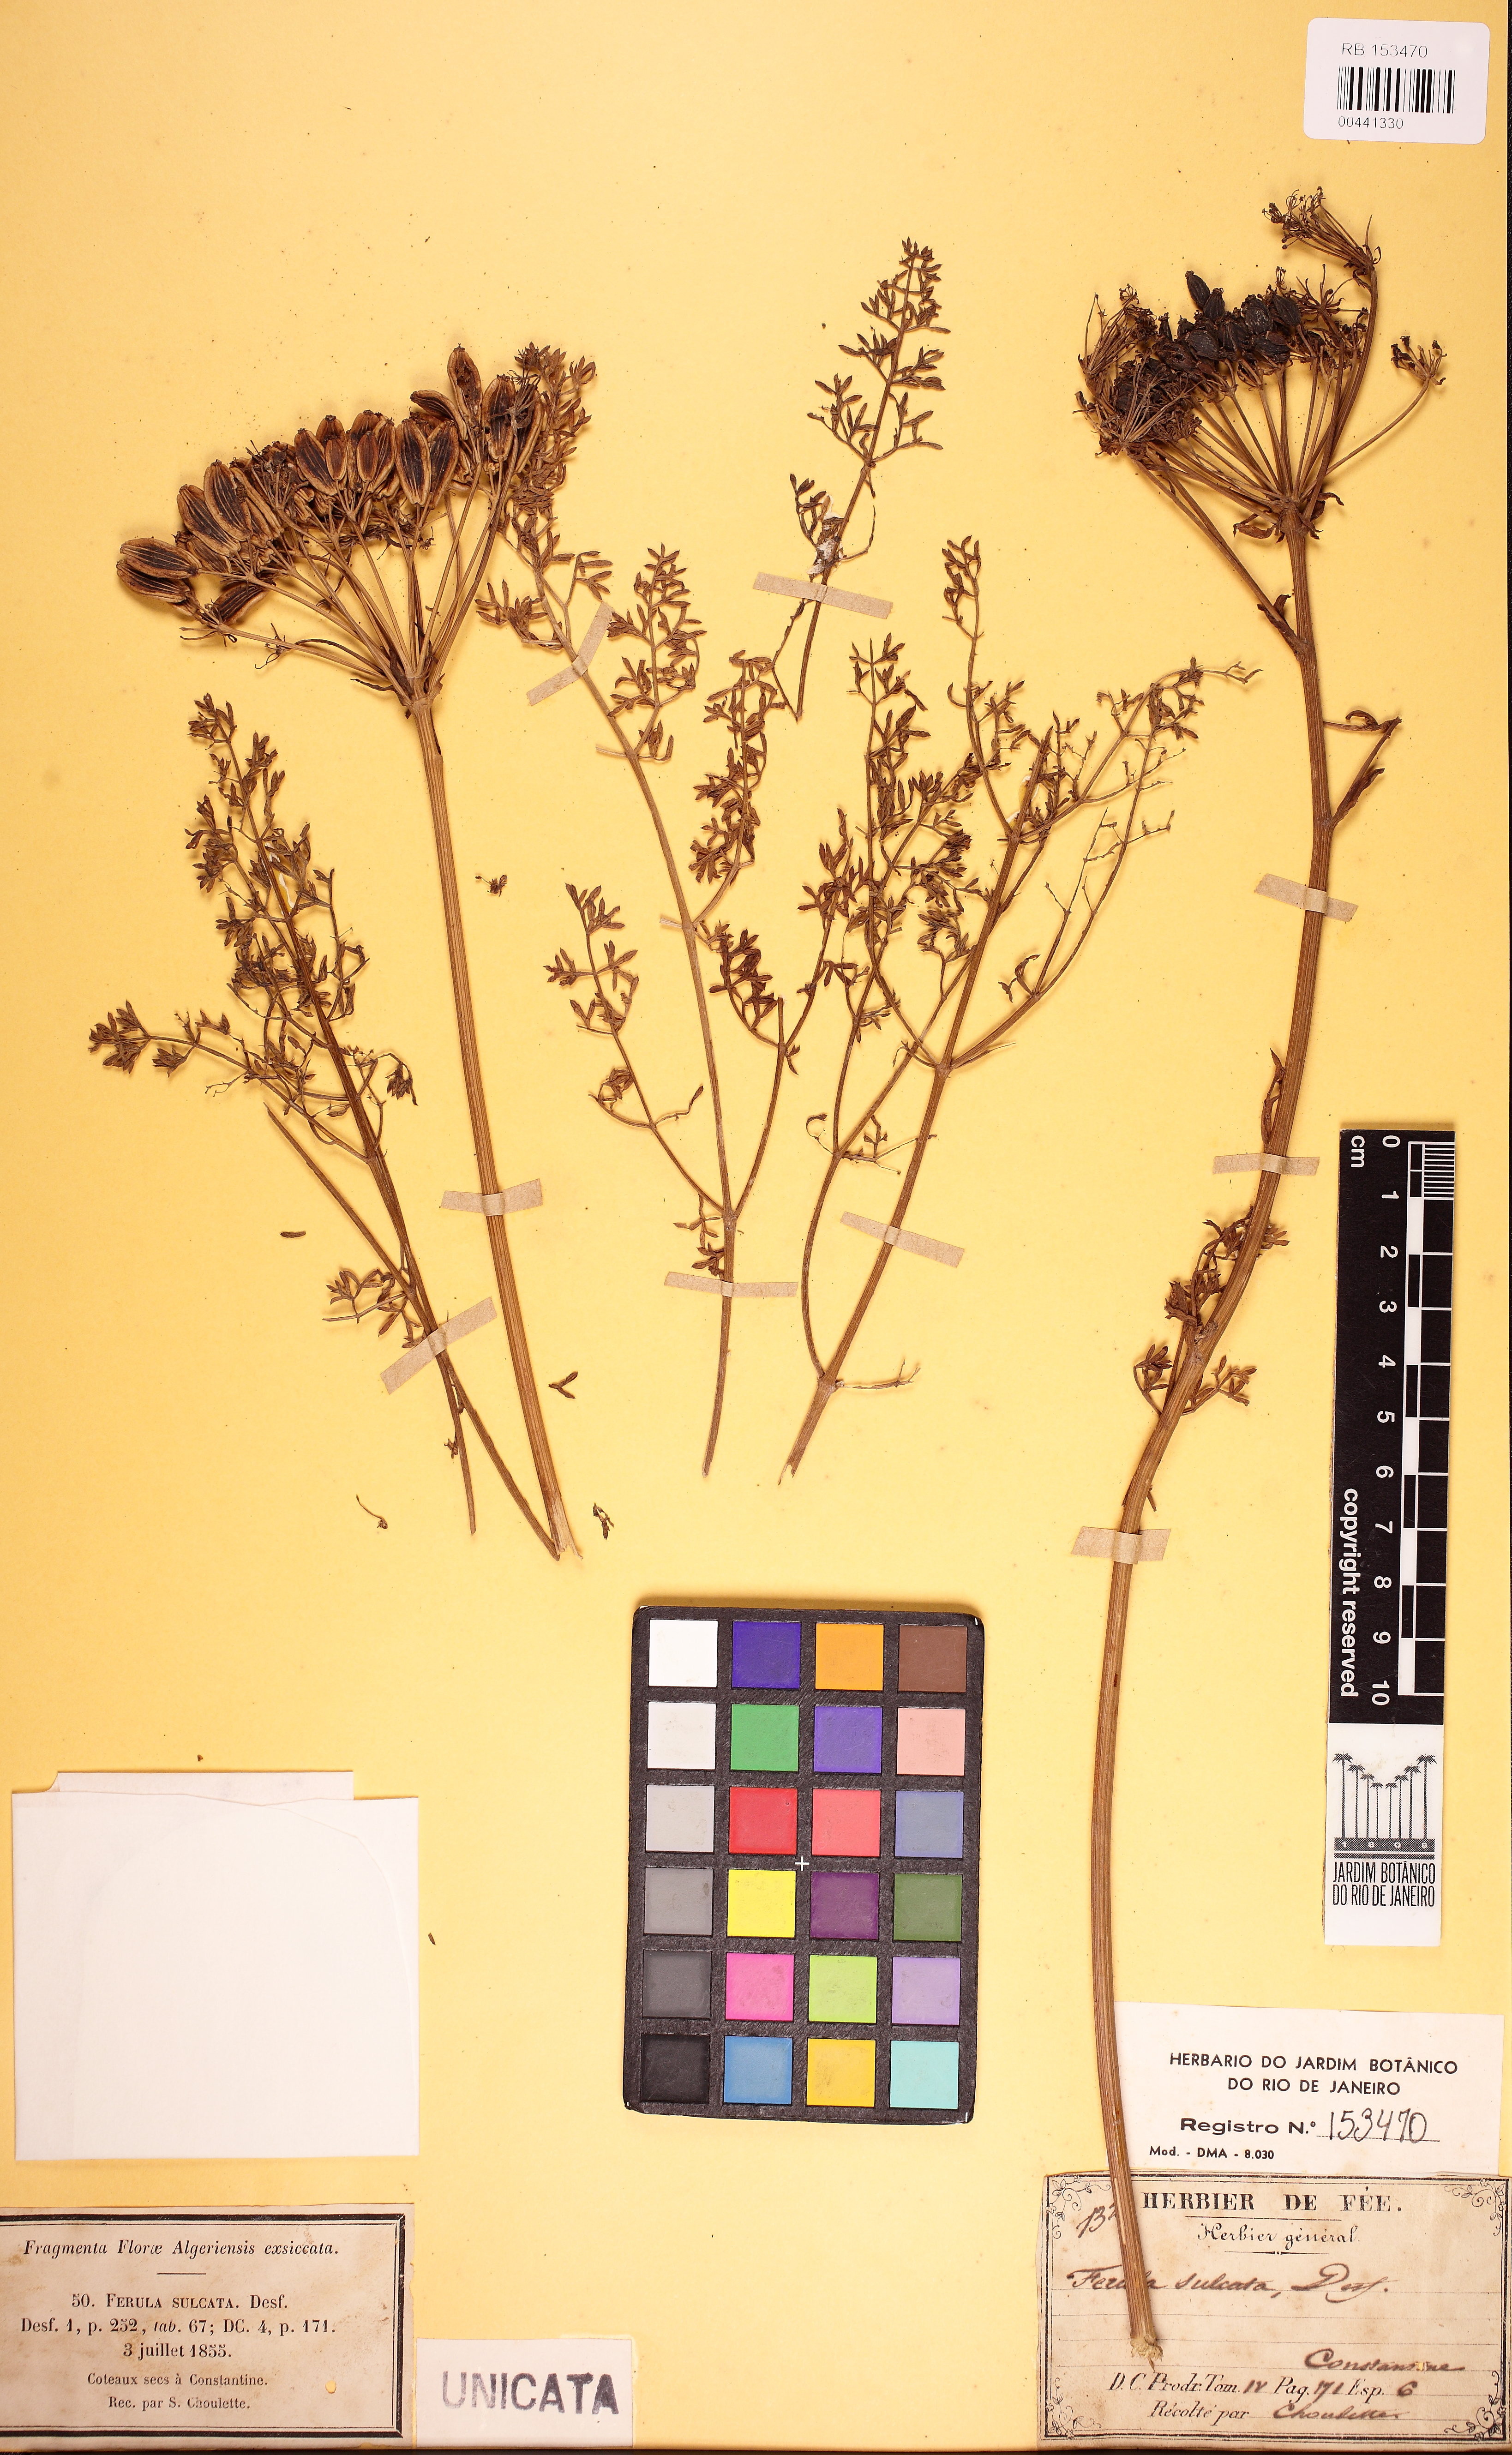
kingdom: Plantae
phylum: Tracheophyta
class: Magnoliopsida
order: Apiales
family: Apiaceae
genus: Ferulago
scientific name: Ferulago lutea
